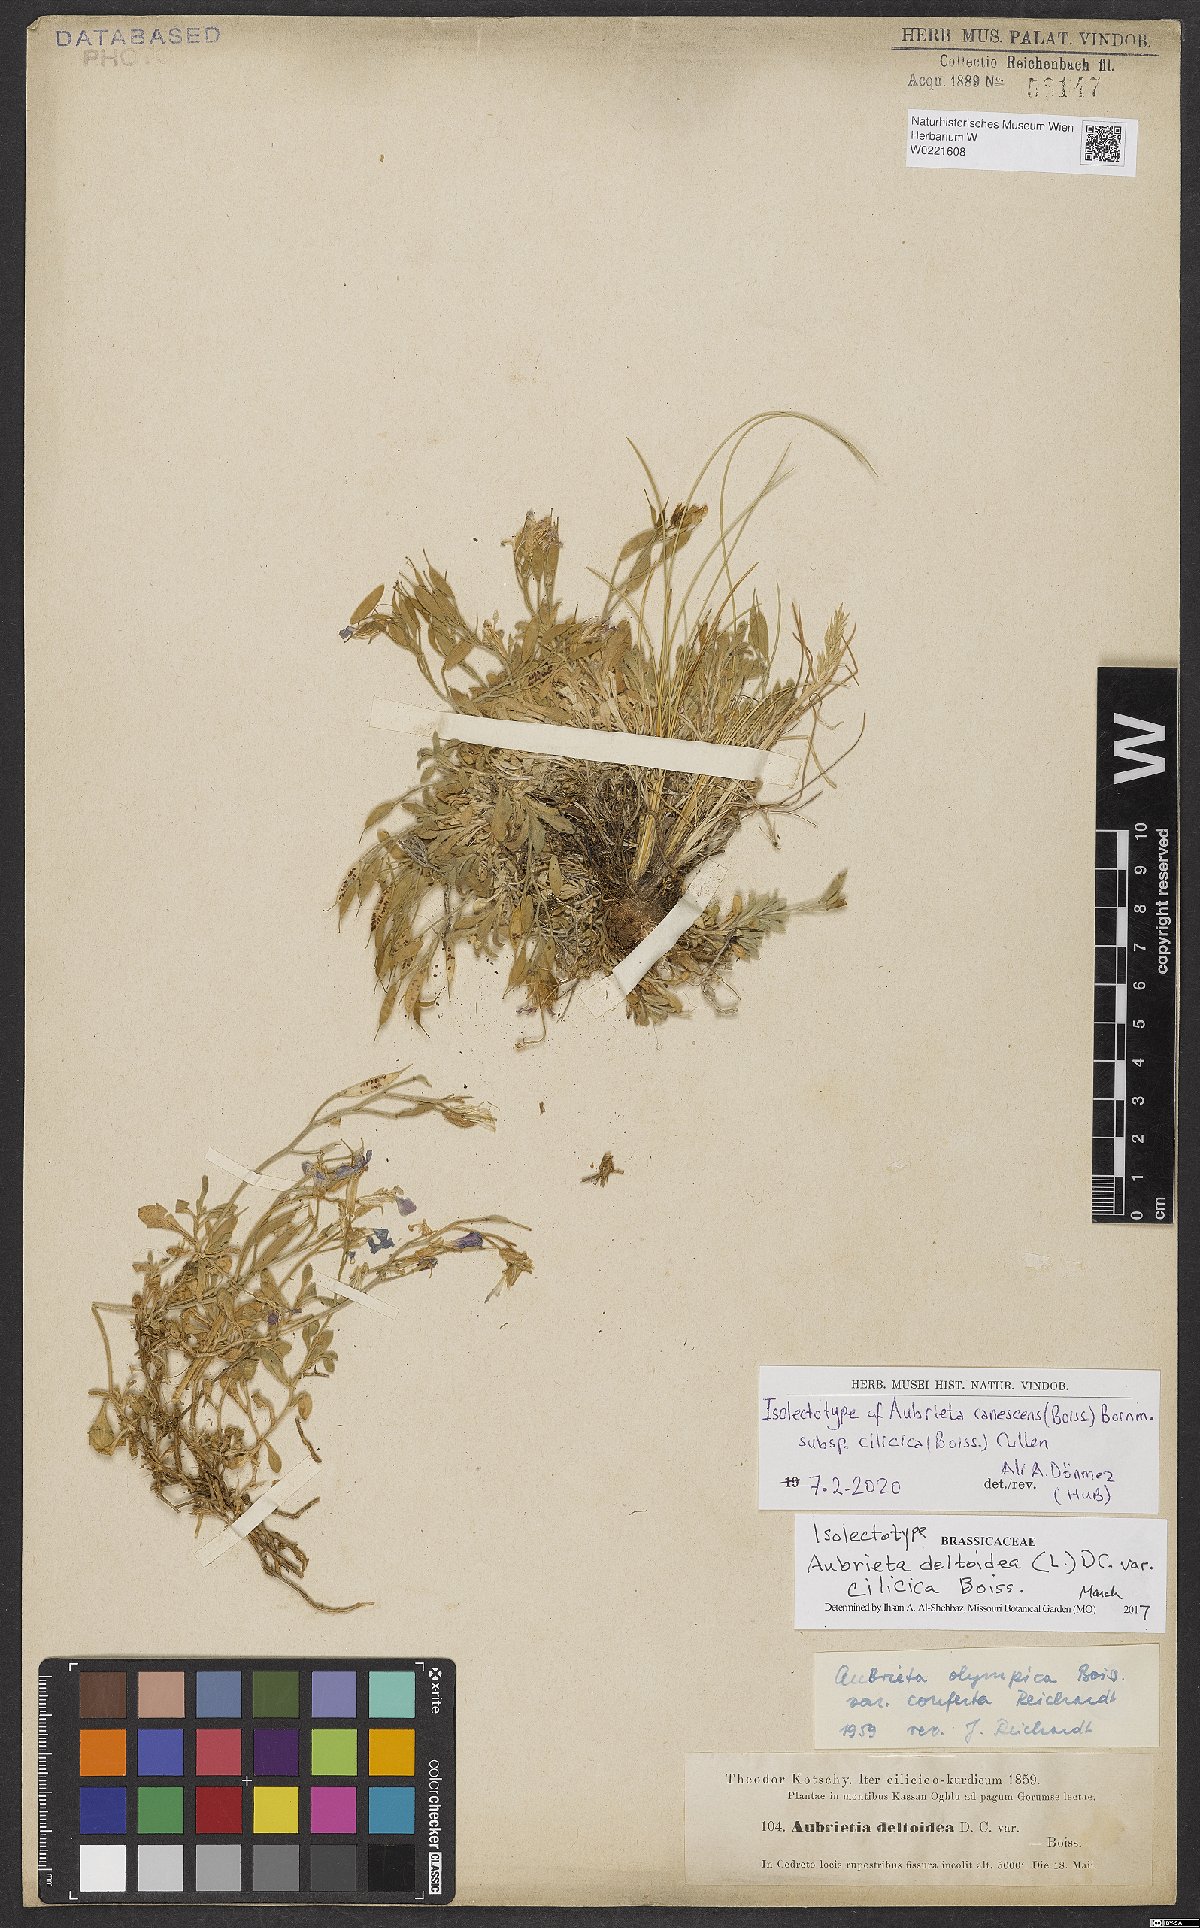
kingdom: Plantae
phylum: Tracheophyta
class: Magnoliopsida
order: Brassicales
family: Brassicaceae
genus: Aubrieta
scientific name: Aubrieta deltoidea
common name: Aubretia
